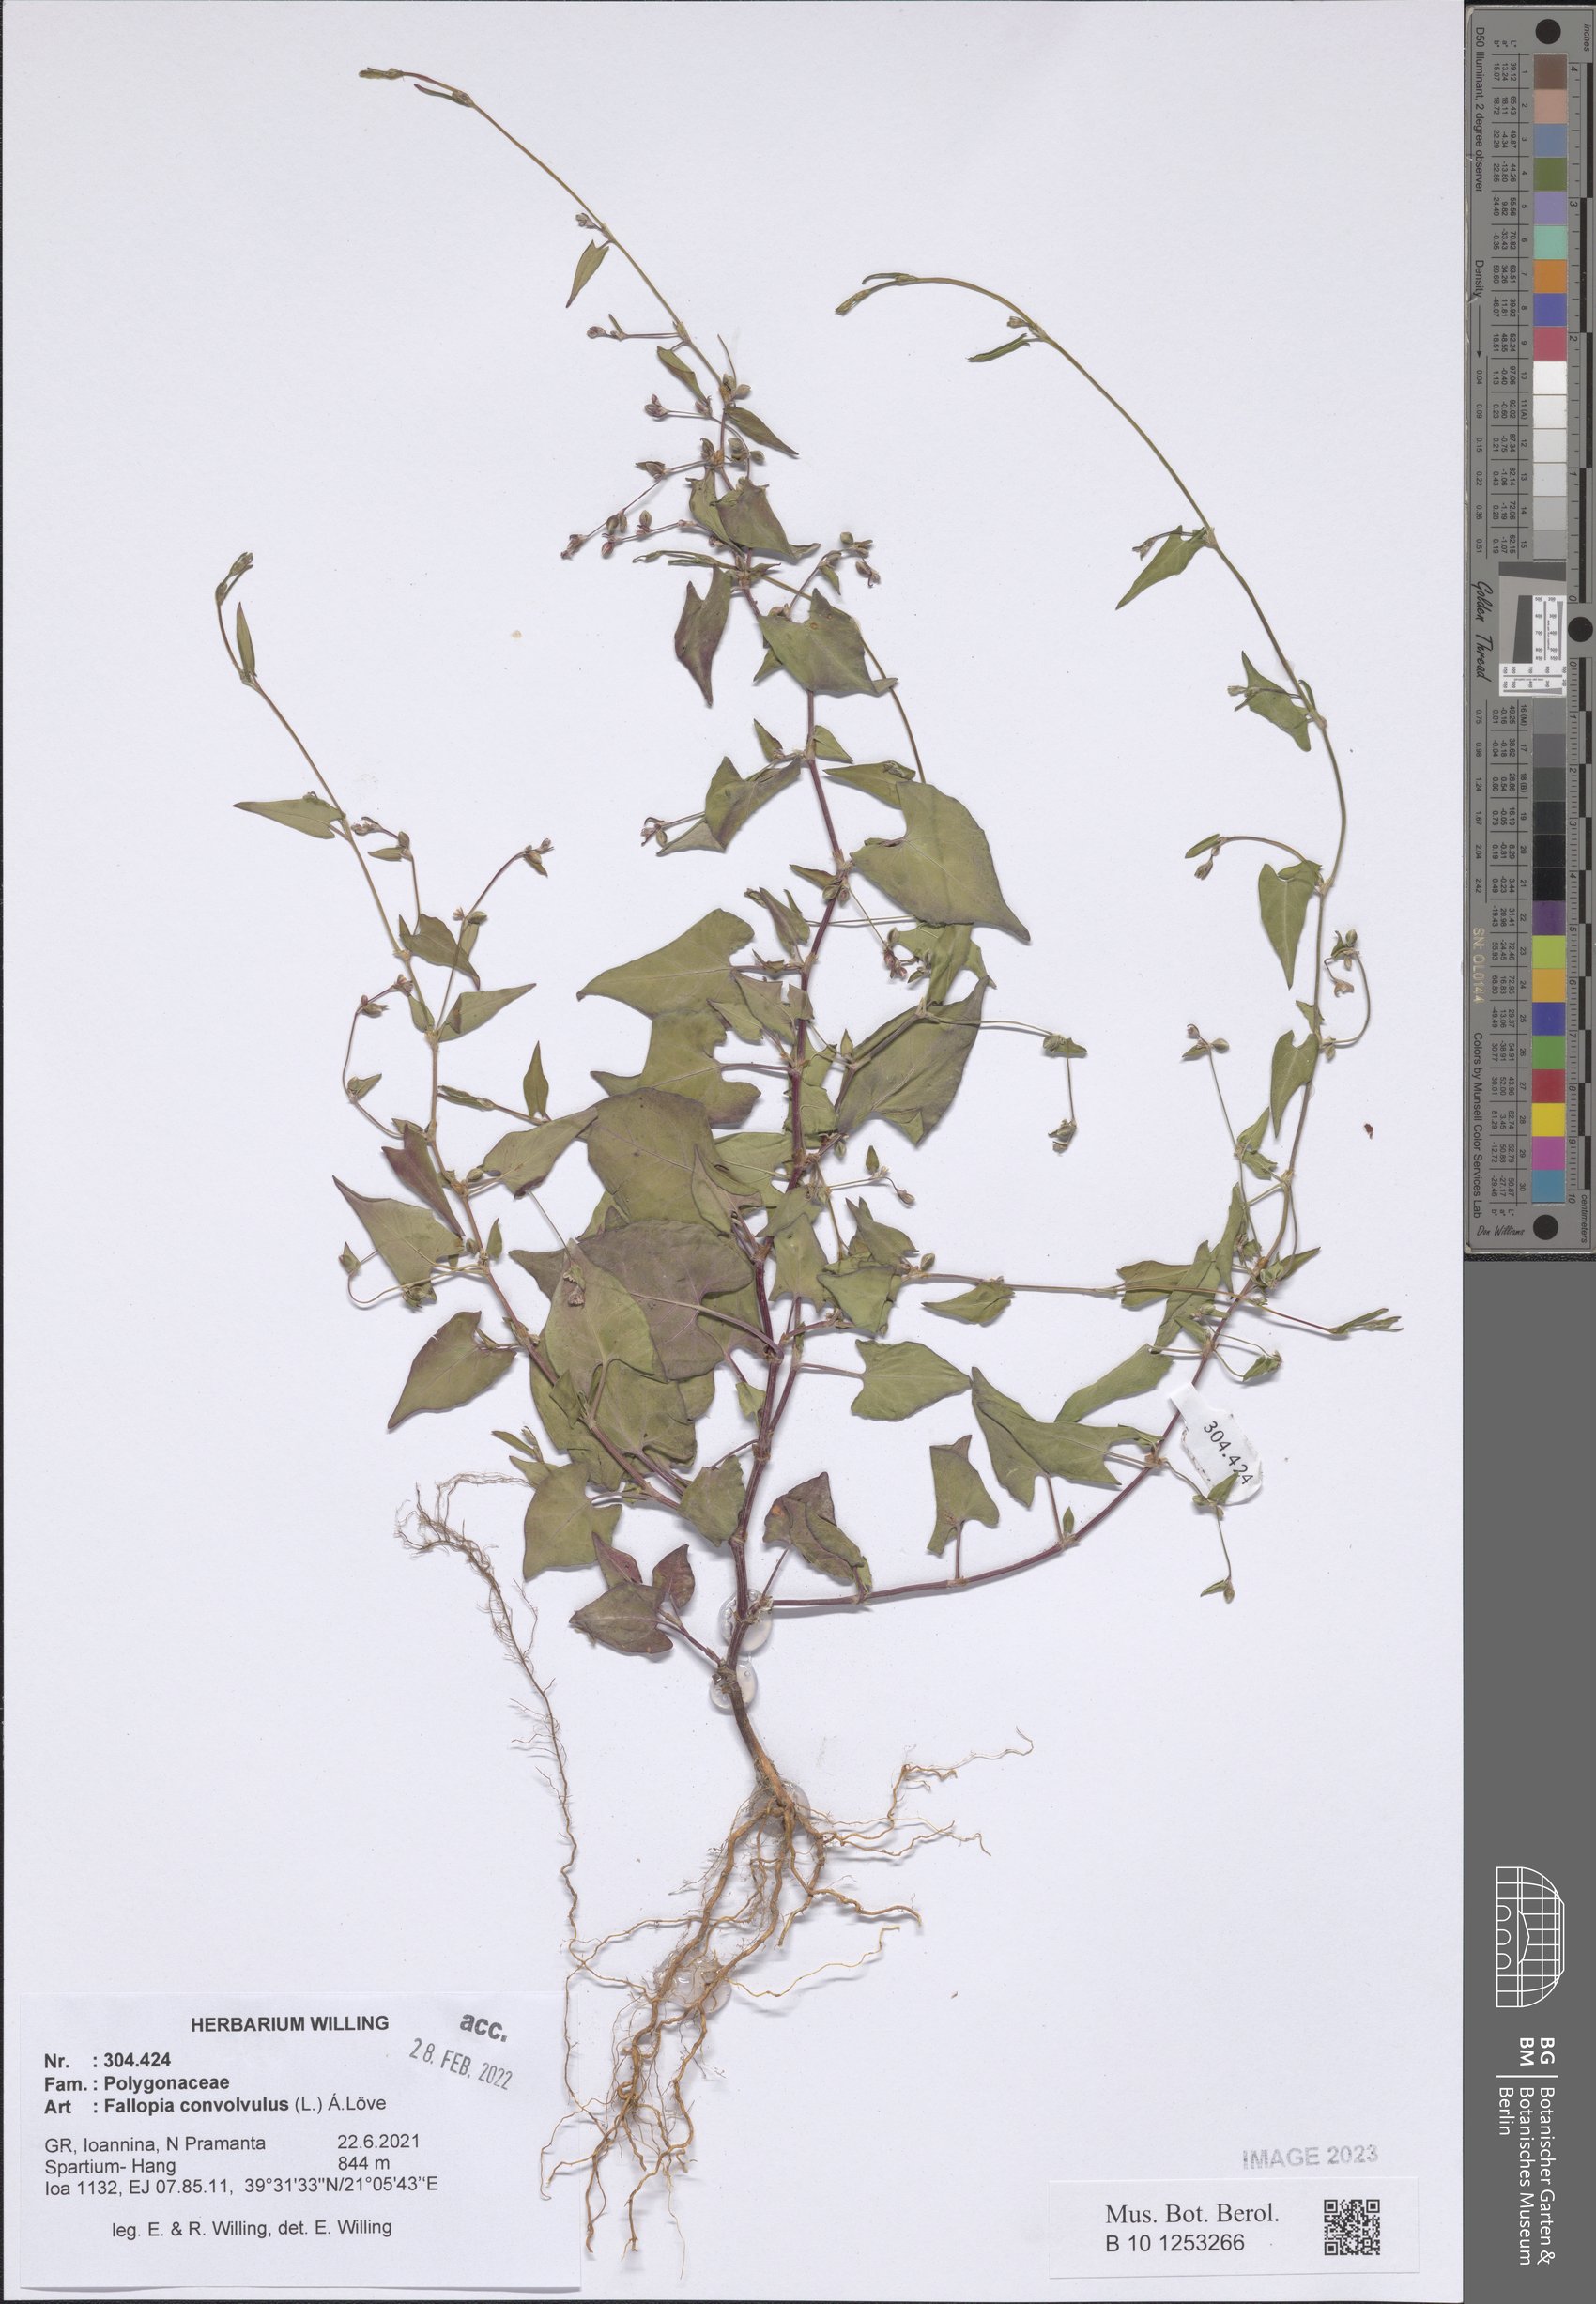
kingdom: Plantae
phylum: Tracheophyta
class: Magnoliopsida
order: Caryophyllales
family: Polygonaceae
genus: Fallopia
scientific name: Fallopia convolvulus
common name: Black bindweed
